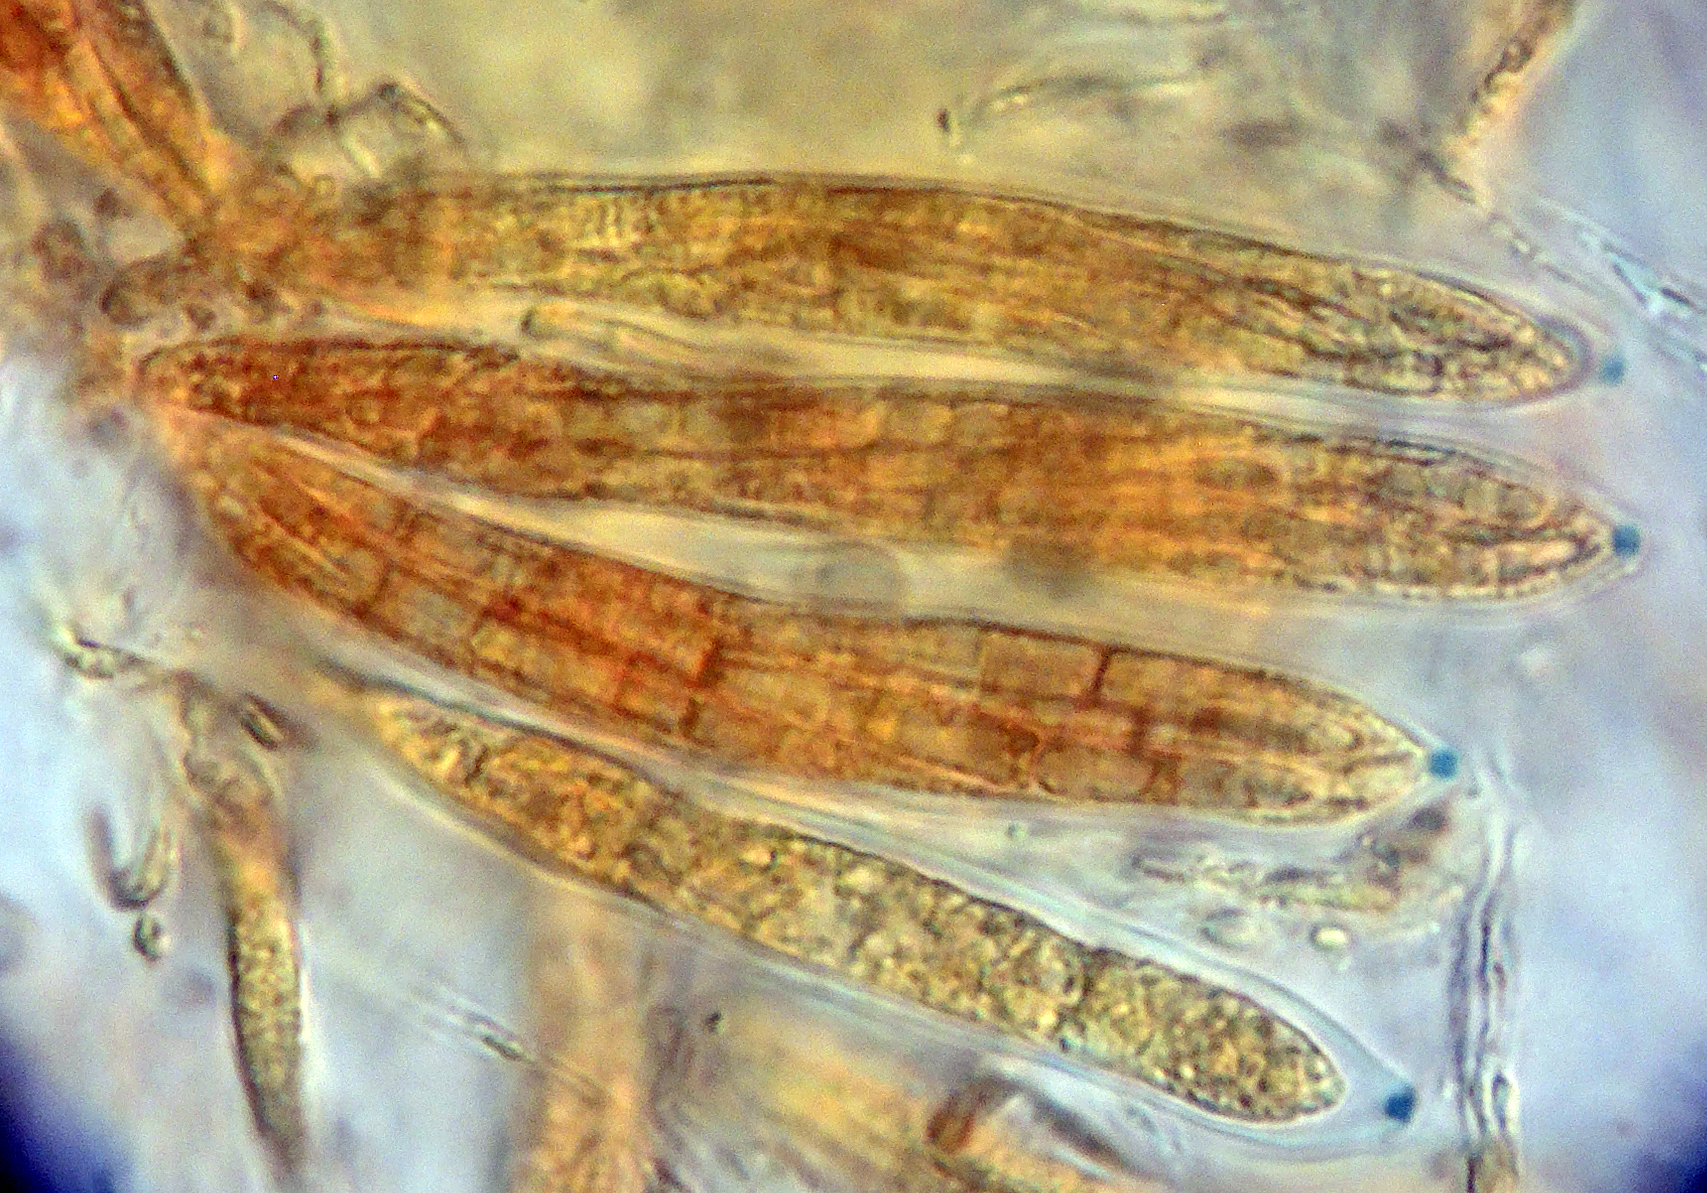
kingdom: Fungi
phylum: Ascomycota
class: Leotiomycetes
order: Helotiales
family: Mollisiaceae
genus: Mollisia
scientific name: Mollisia asteroma
